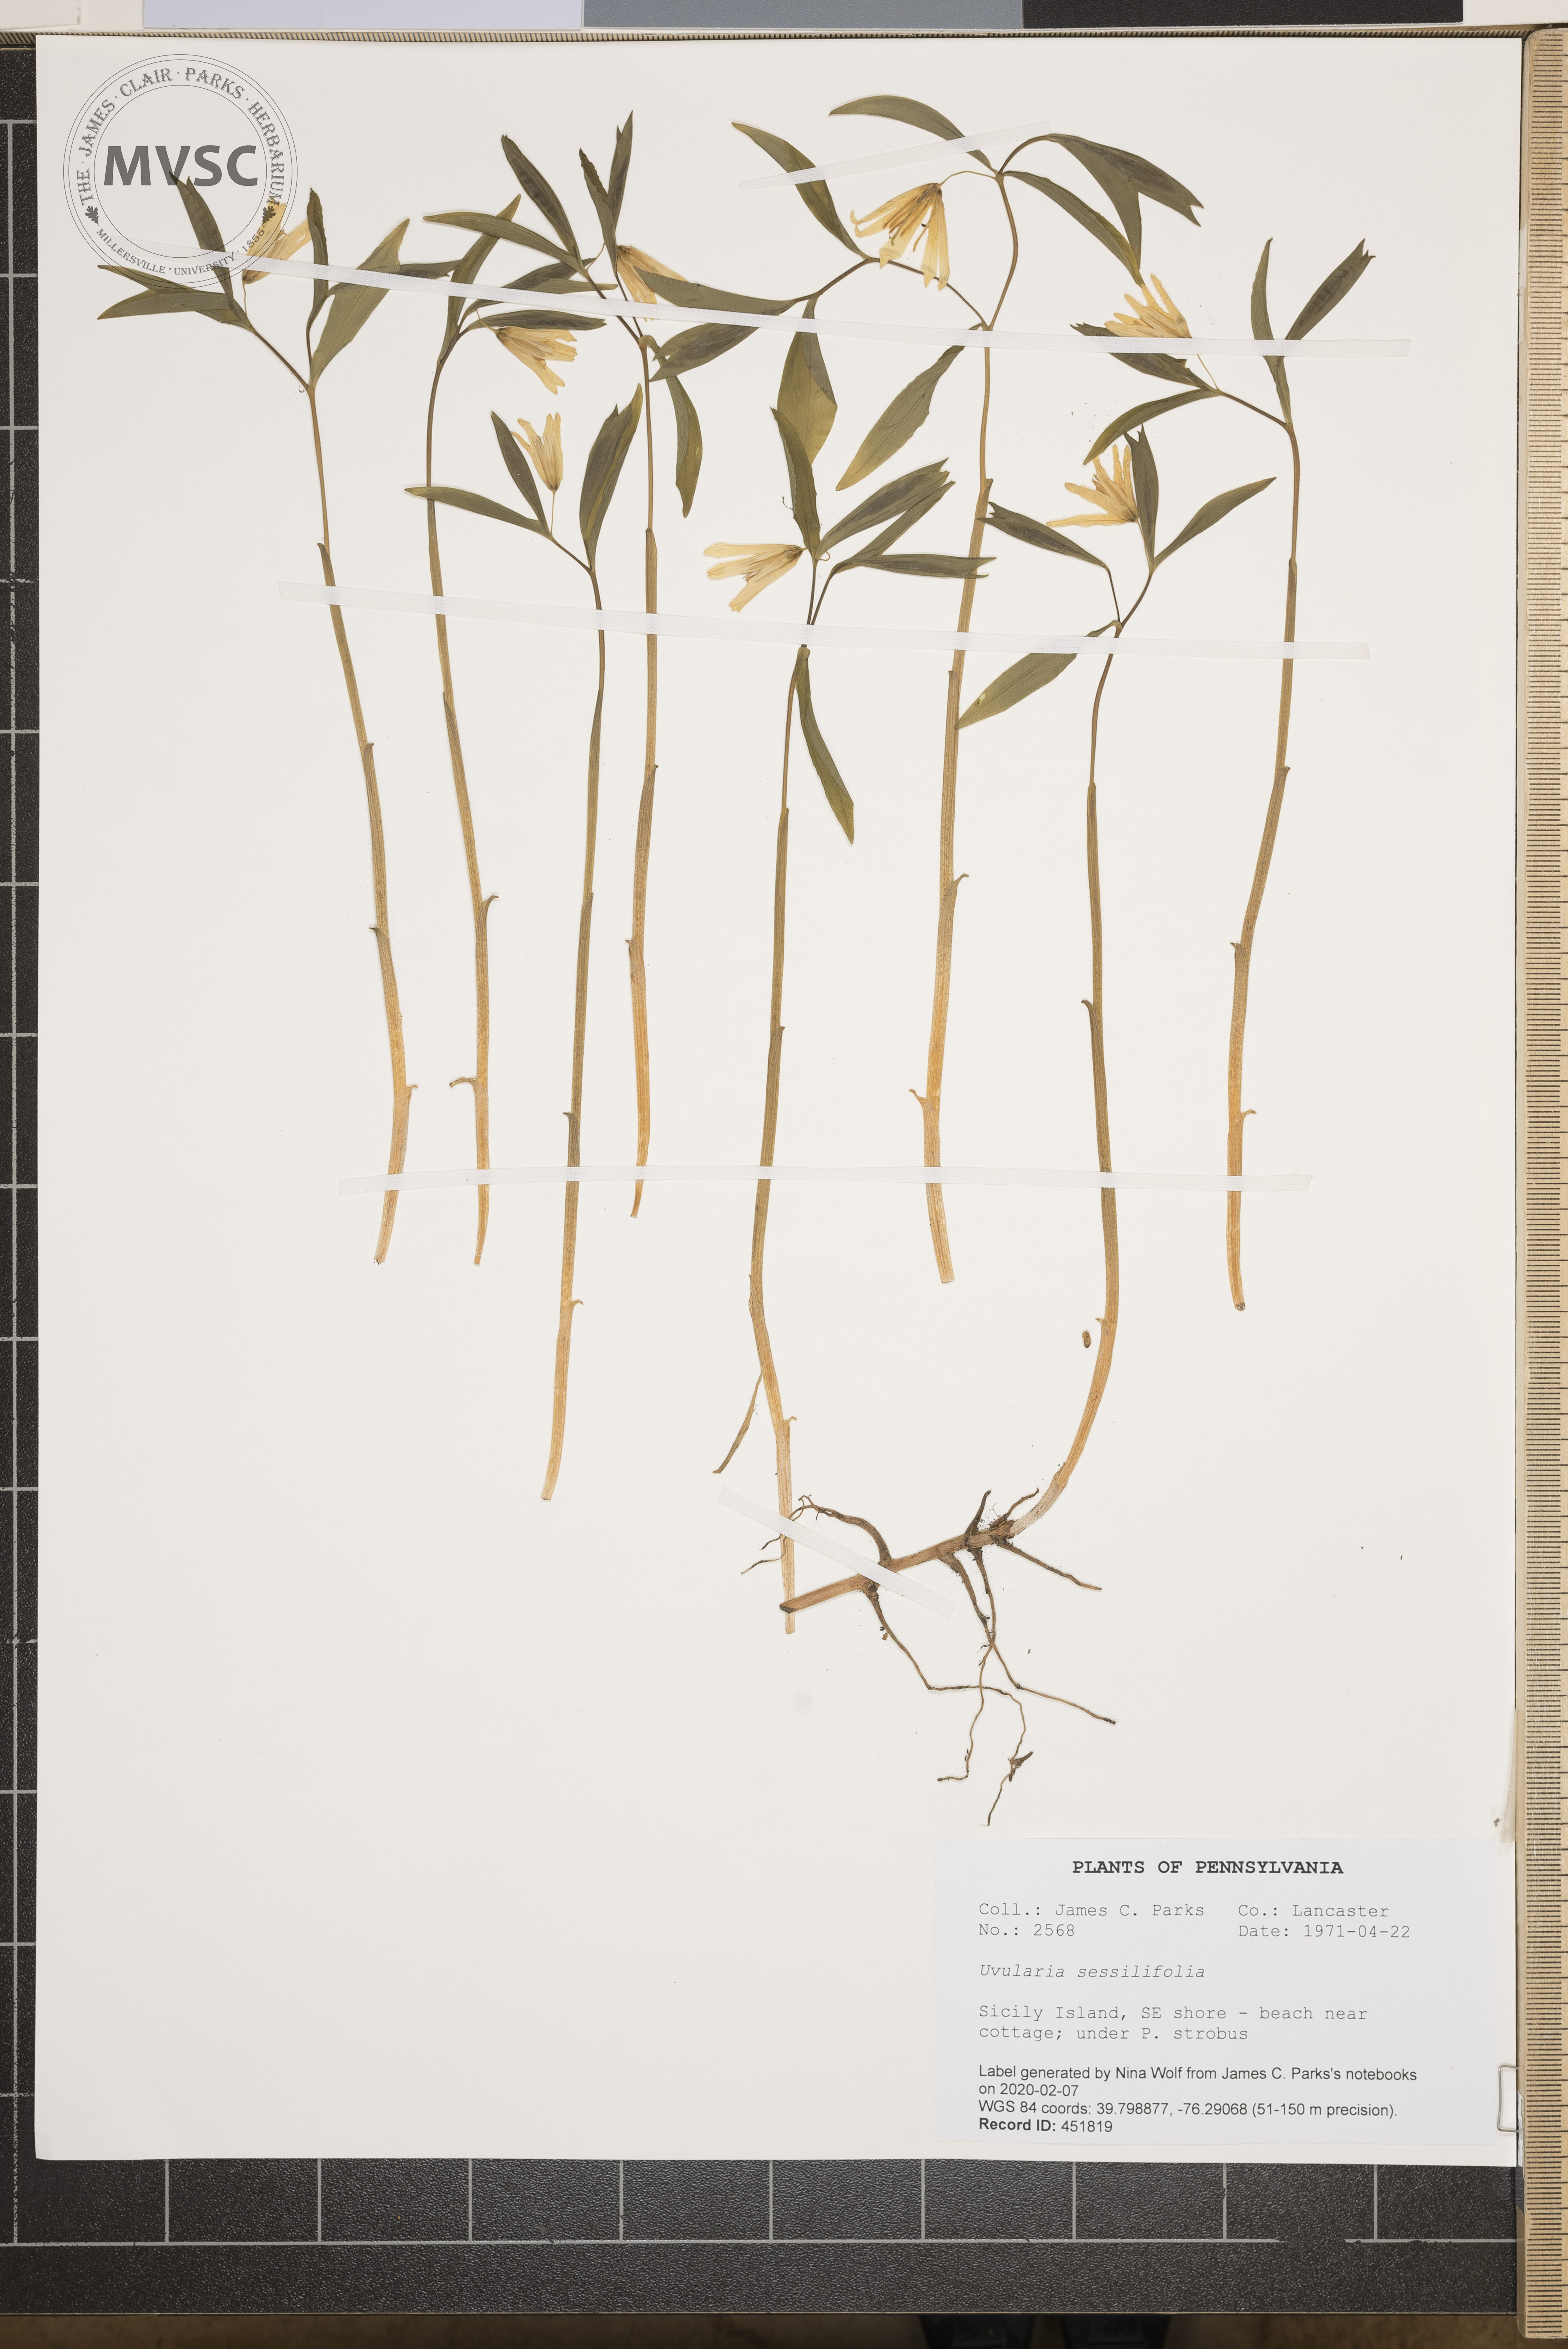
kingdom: Plantae
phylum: Tracheophyta
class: Liliopsida
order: Liliales
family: Colchicaceae
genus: Uvularia
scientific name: Uvularia sessilifolia
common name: Straw-lily
